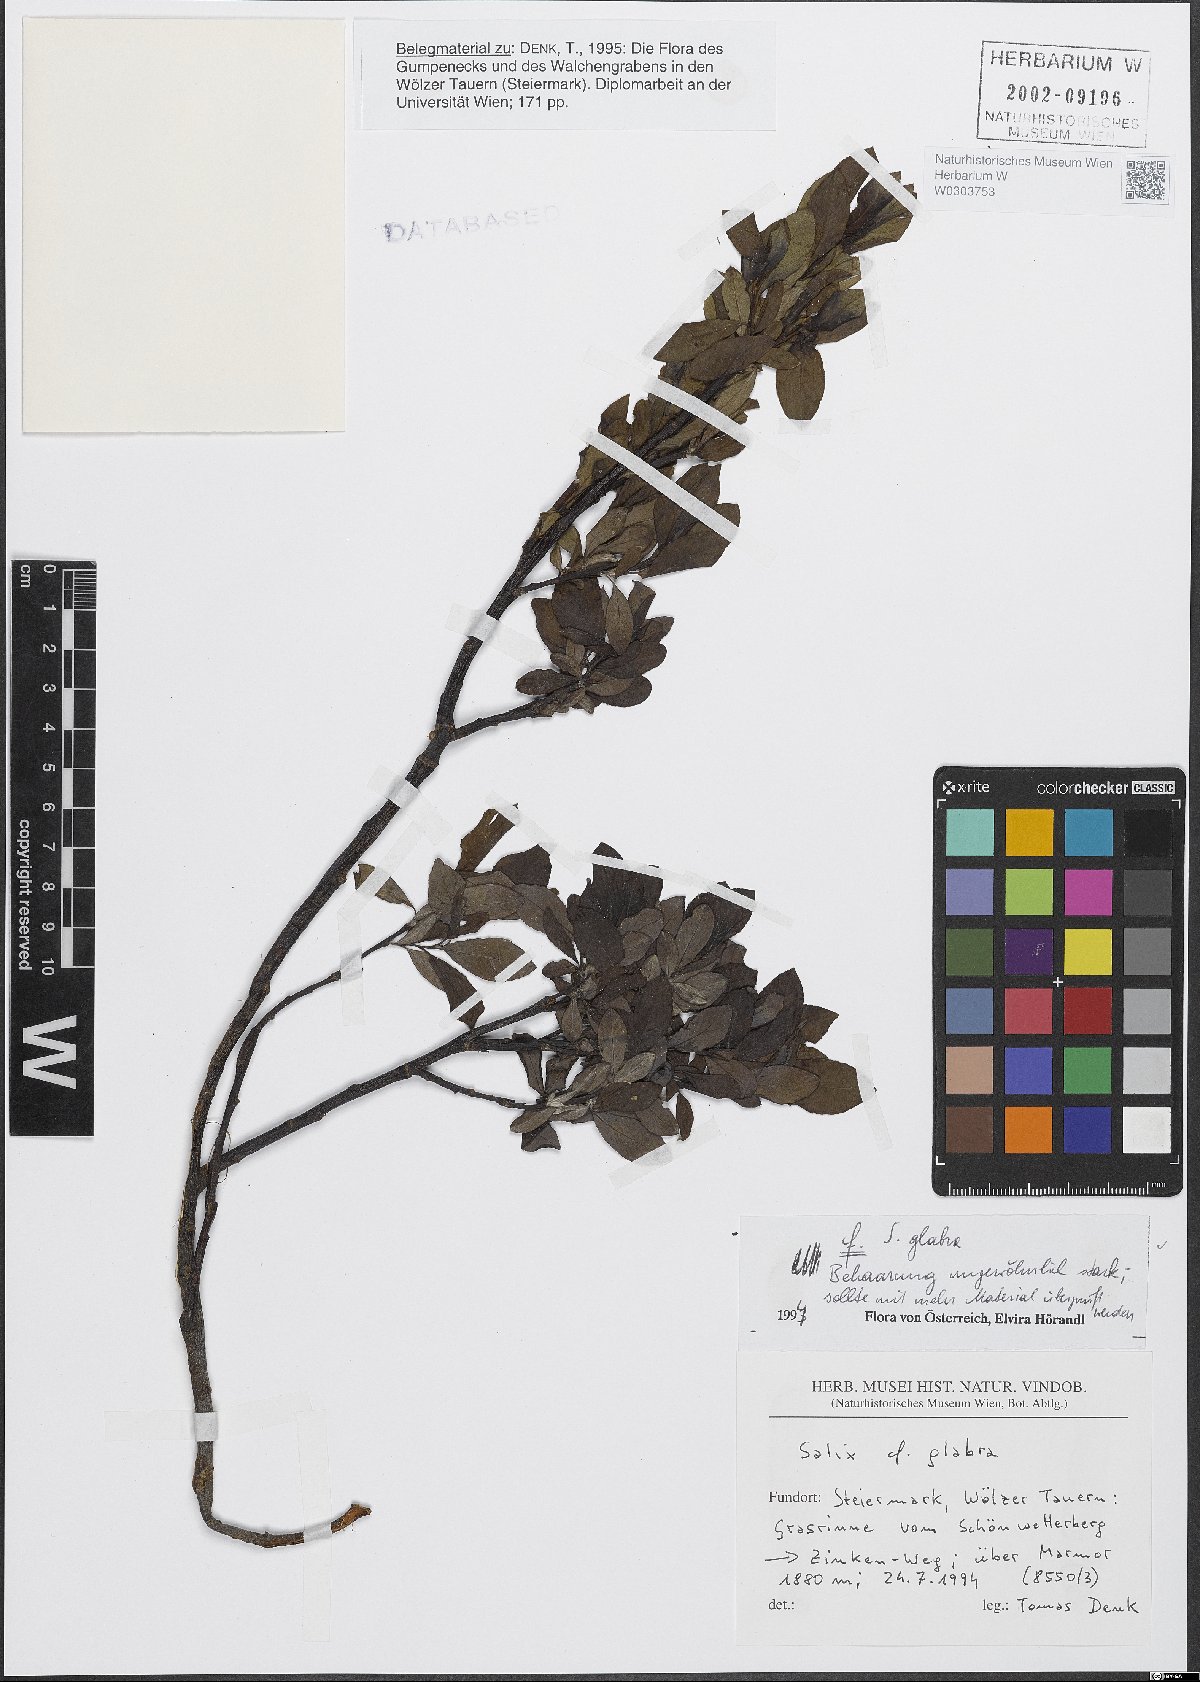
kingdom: Plantae
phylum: Tracheophyta
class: Magnoliopsida
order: Malpighiales
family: Salicaceae
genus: Salix
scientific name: Salix glabra
